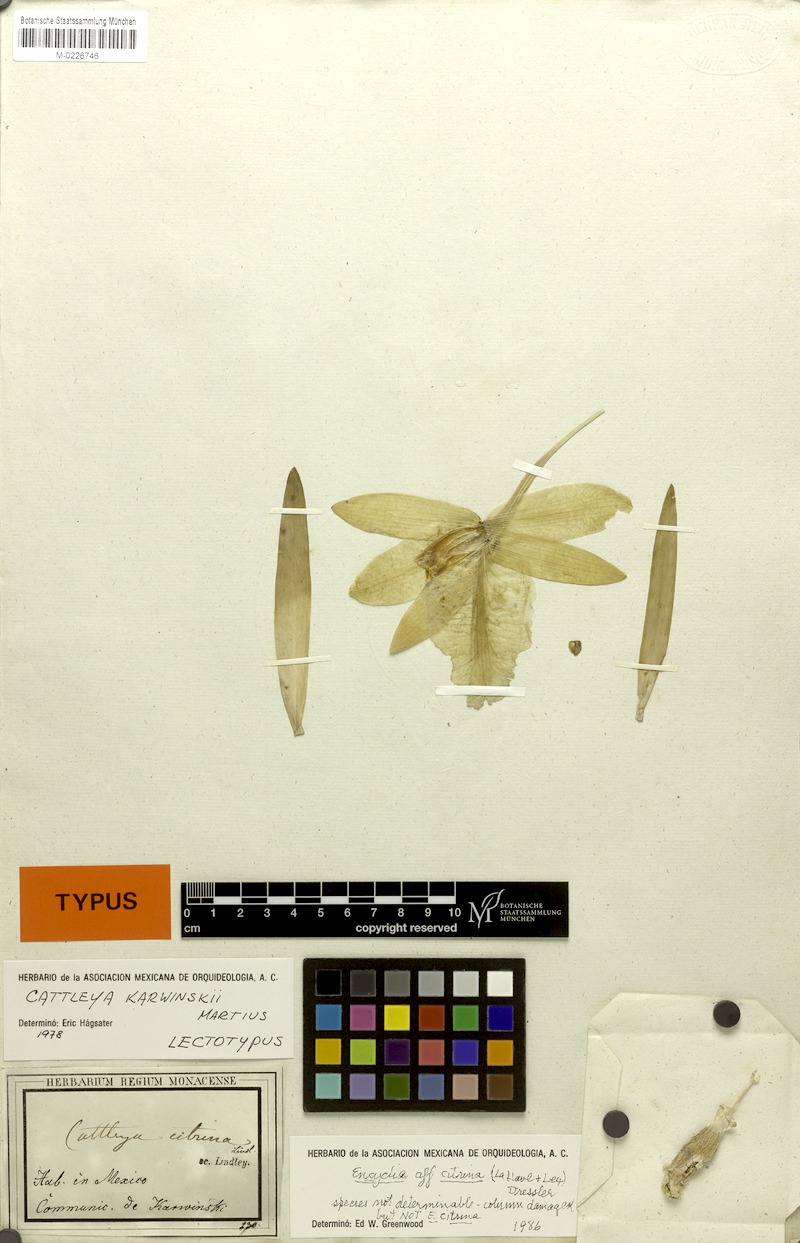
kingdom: Plantae
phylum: Tracheophyta
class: Liliopsida
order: Asparagales
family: Orchidaceae
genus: Prosthechea
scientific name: Prosthechea karwinskii
